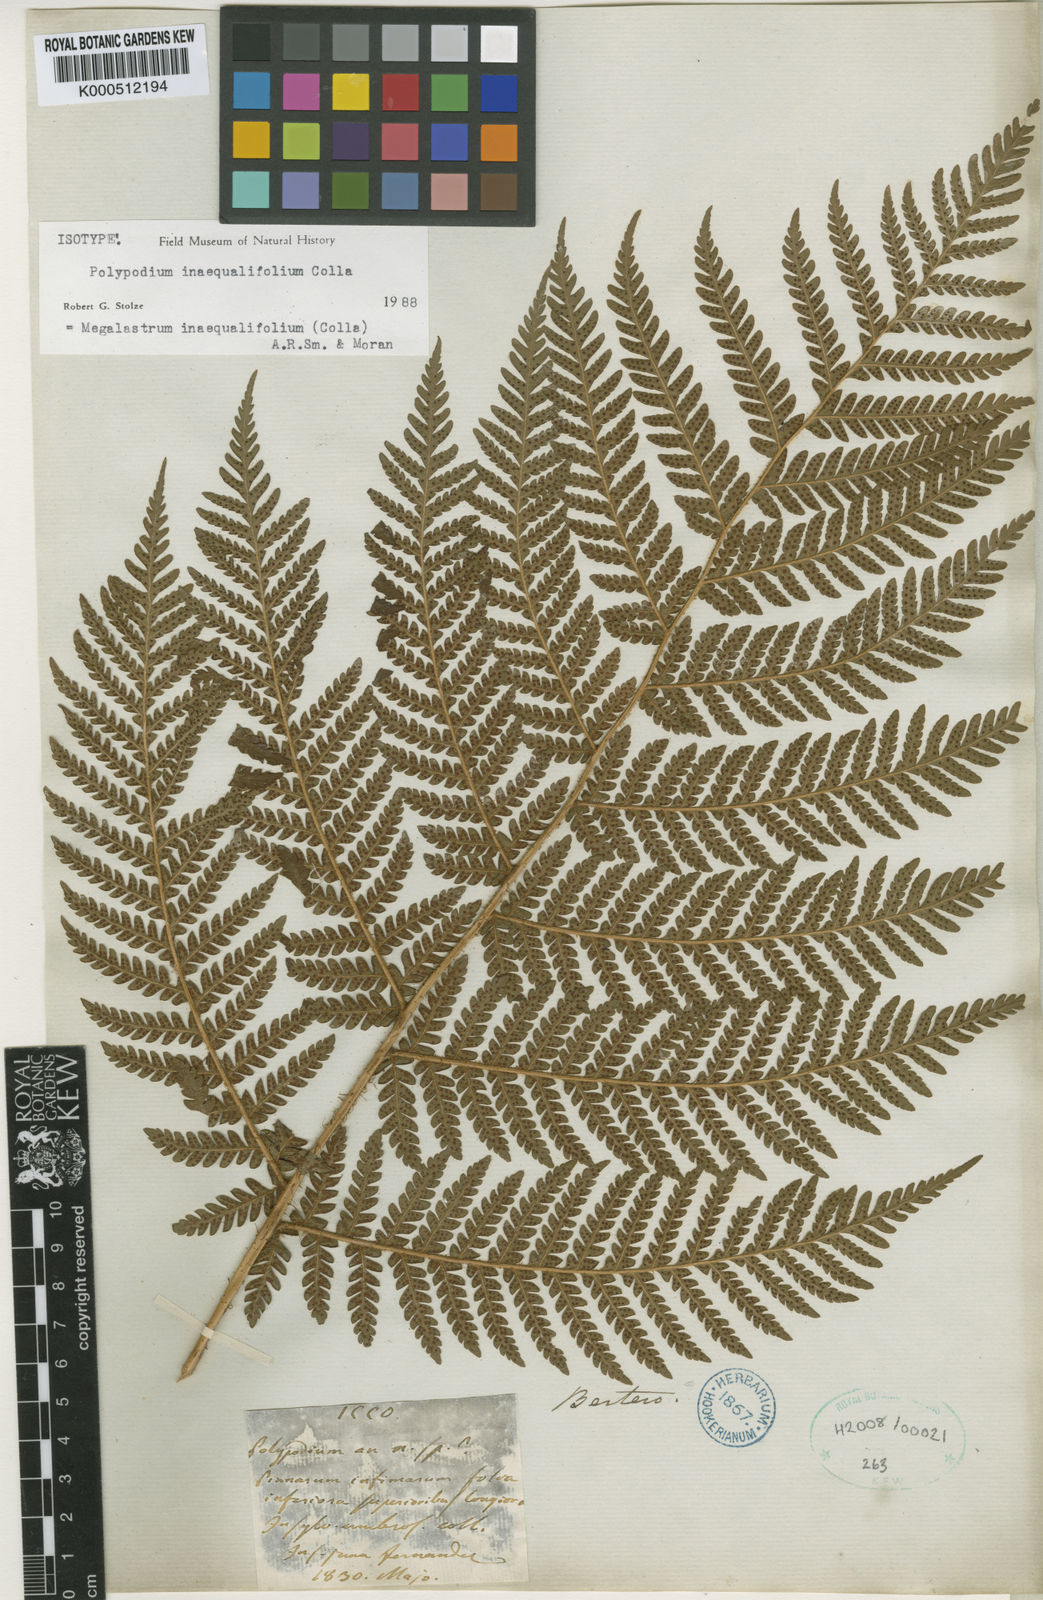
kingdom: Plantae
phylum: Tracheophyta
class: Polypodiopsida
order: Polypodiales
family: Dryopteridaceae
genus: Megalastrum
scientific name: Megalastrum inaequalifolium
